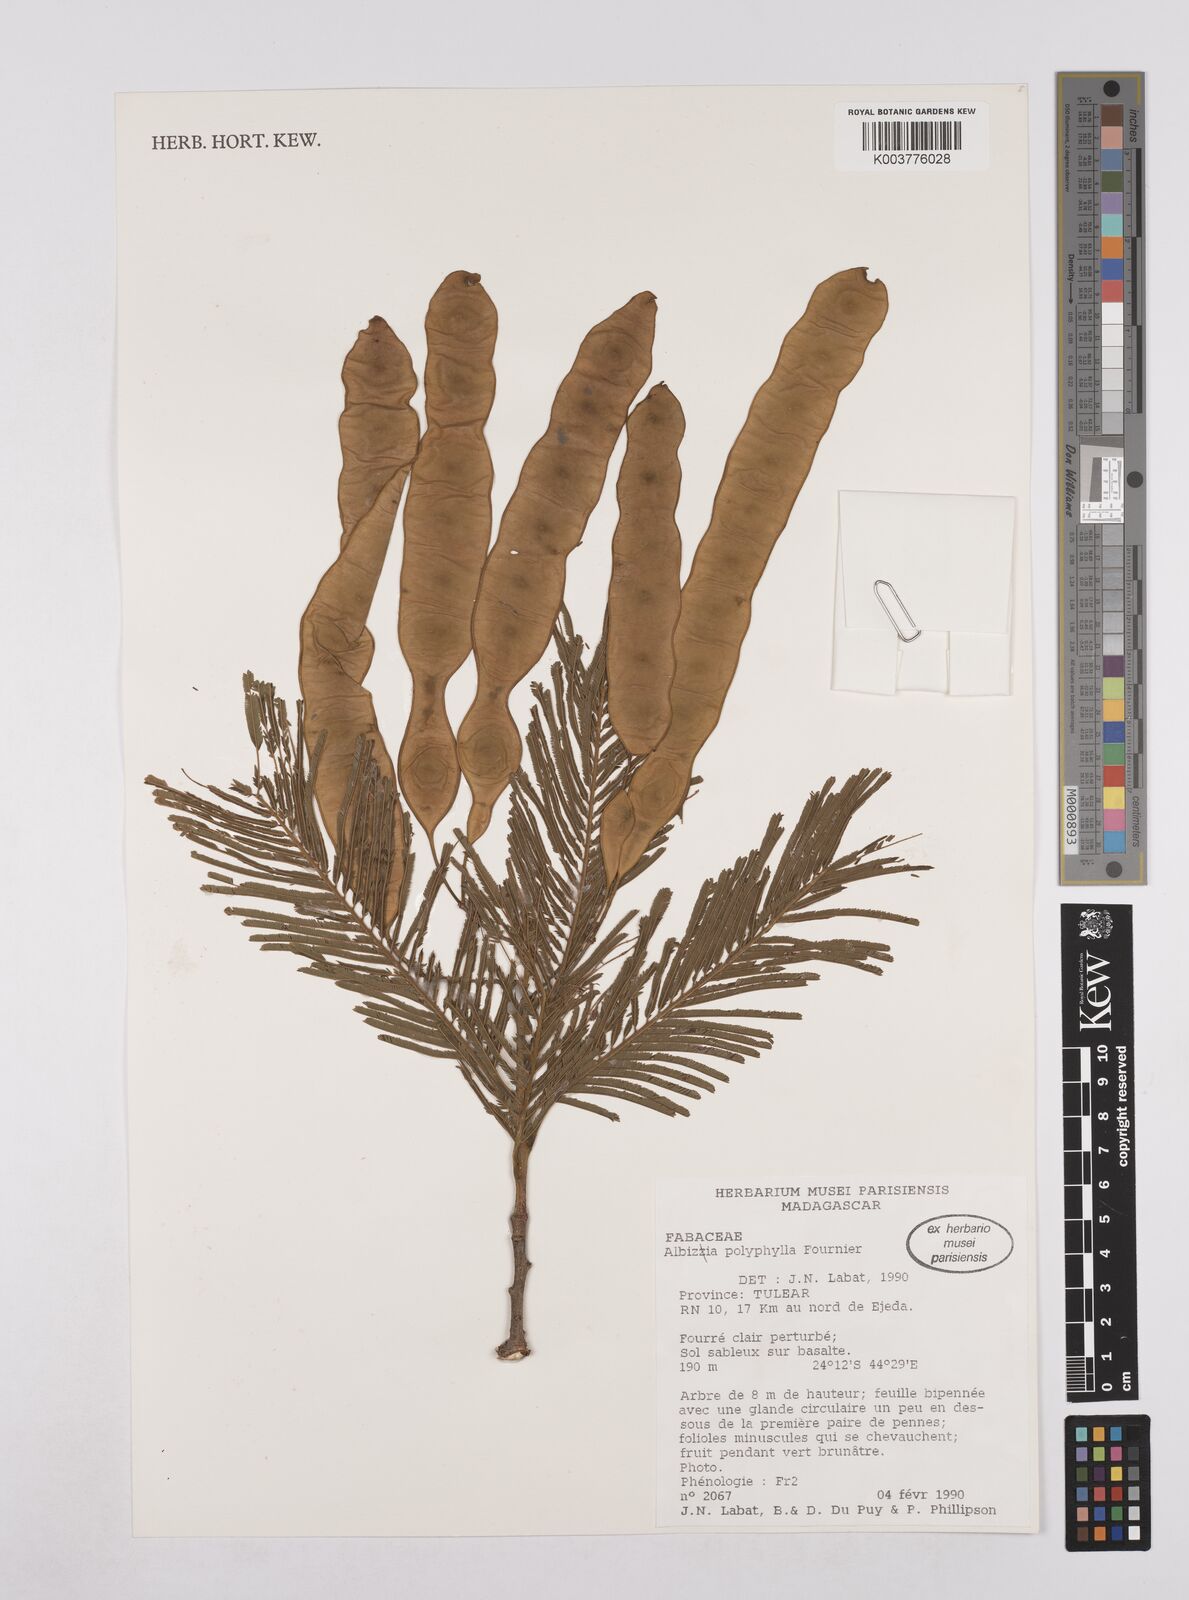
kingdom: Plantae
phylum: Tracheophyta
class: Magnoliopsida
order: Fabales
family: Fabaceae
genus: Albizia
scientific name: Albizia polyphylla
